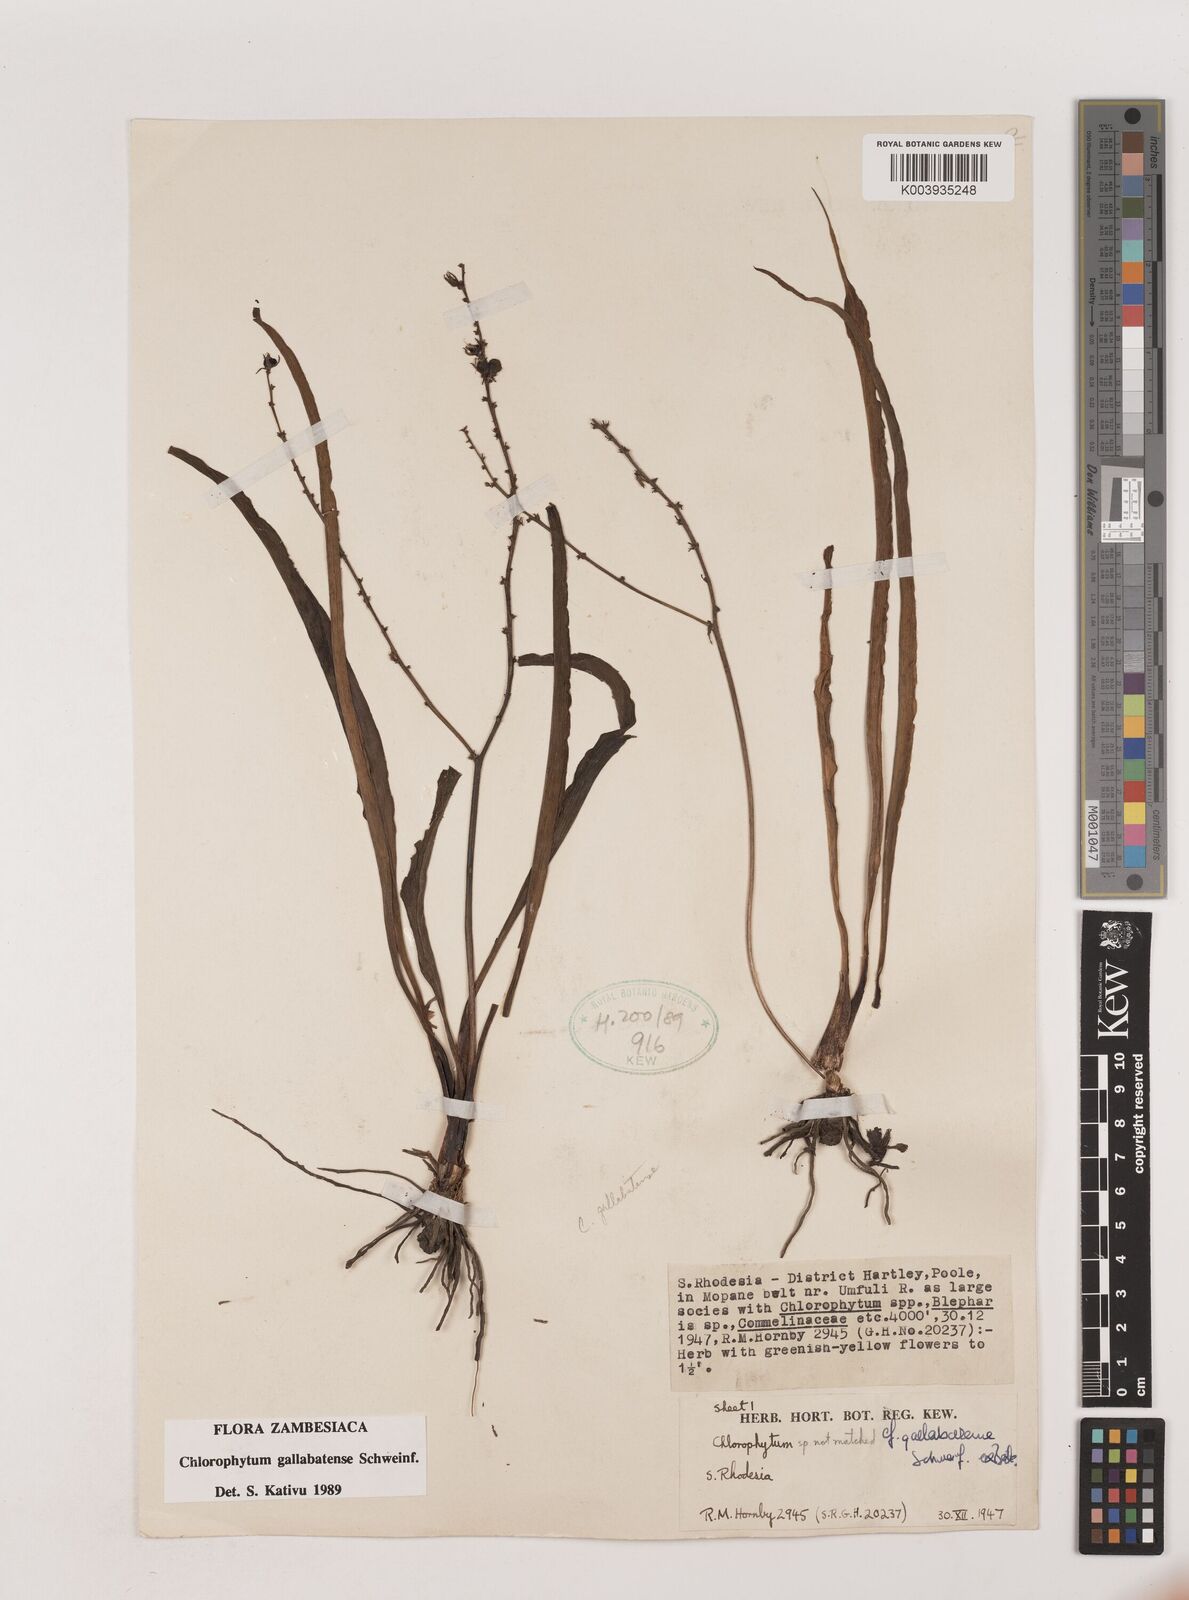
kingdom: Plantae
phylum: Tracheophyta
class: Liliopsida
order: Asparagales
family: Asparagaceae
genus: Chlorophytum
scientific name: Chlorophytum gallabatense
